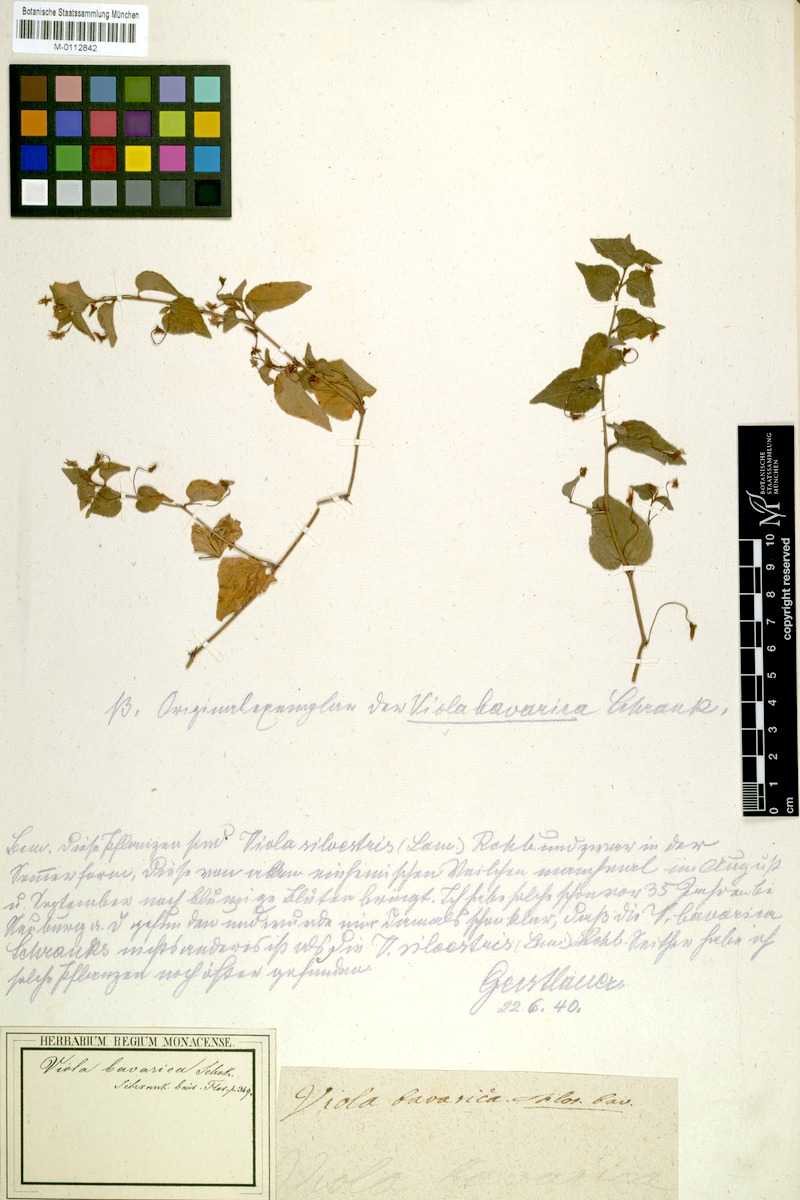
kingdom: Plantae
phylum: Tracheophyta
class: Magnoliopsida
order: Malpighiales
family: Violaceae
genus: Viola
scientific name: Viola bavarica
